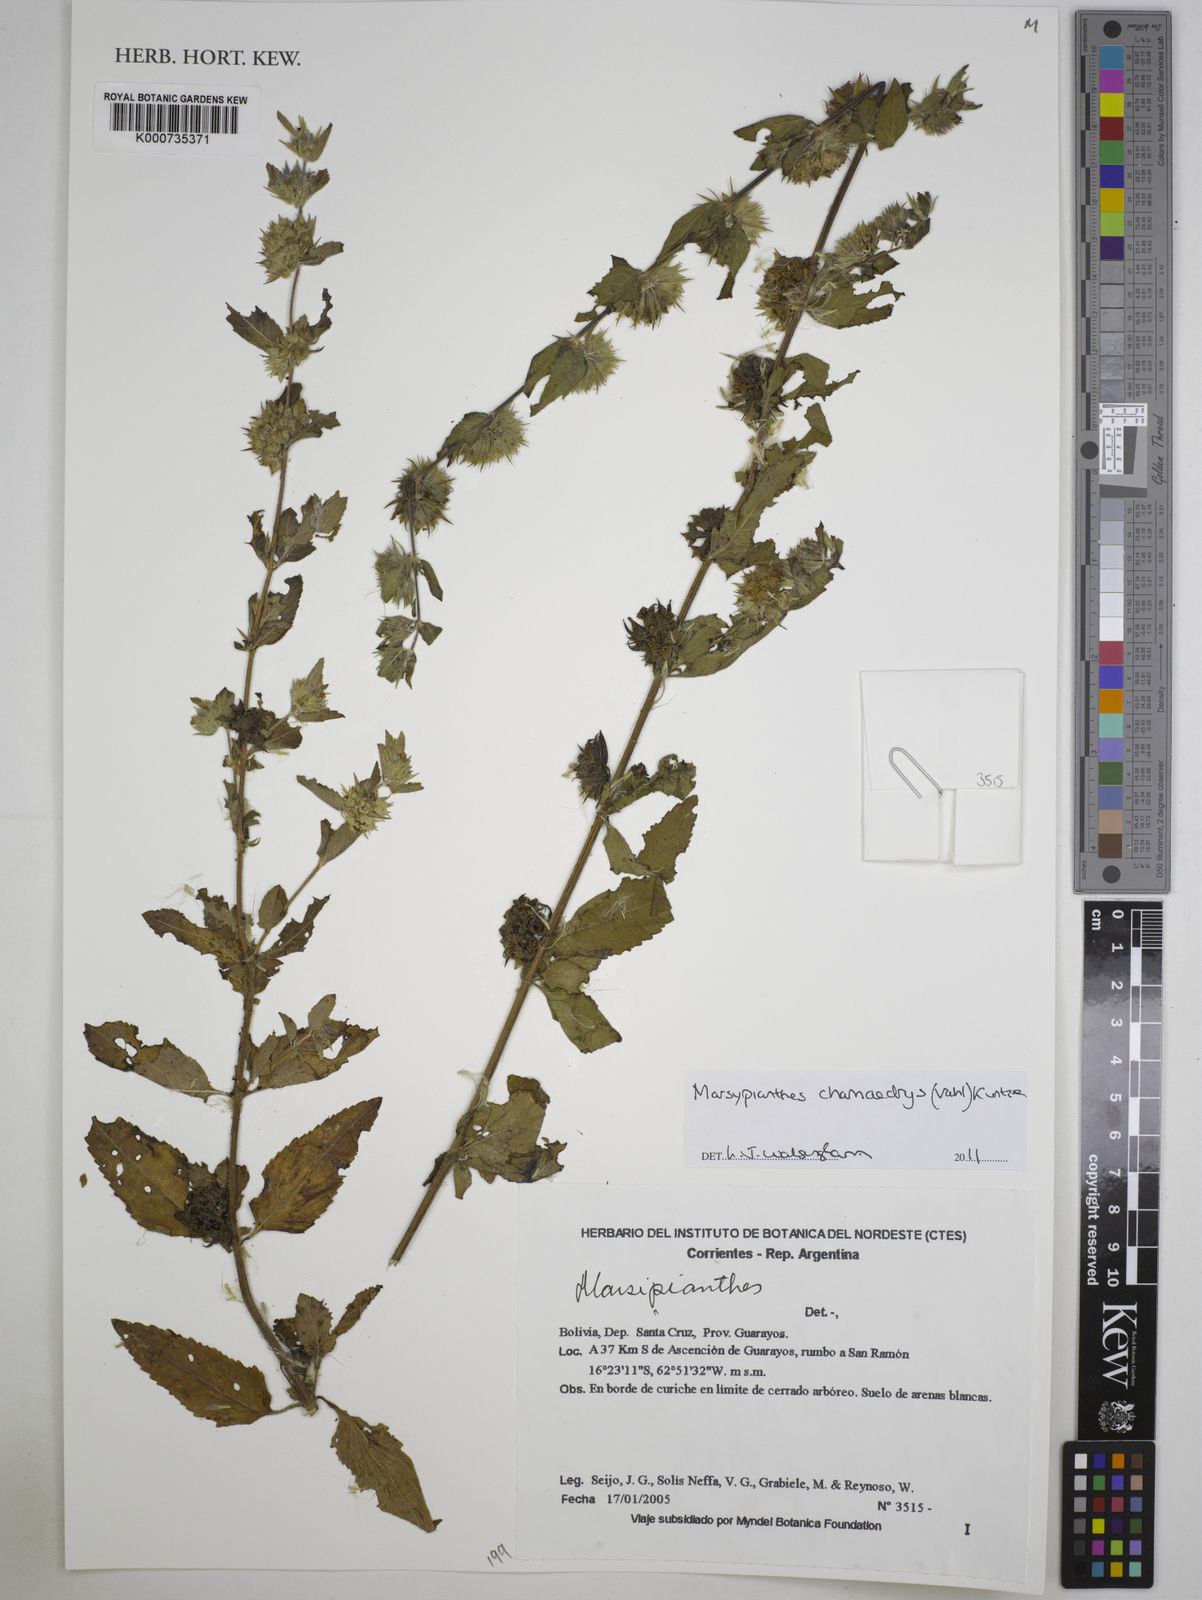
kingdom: Plantae
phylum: Tracheophyta
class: Magnoliopsida
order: Lamiales
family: Lamiaceae
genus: Marsypianthes
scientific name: Marsypianthes chamaedrys
